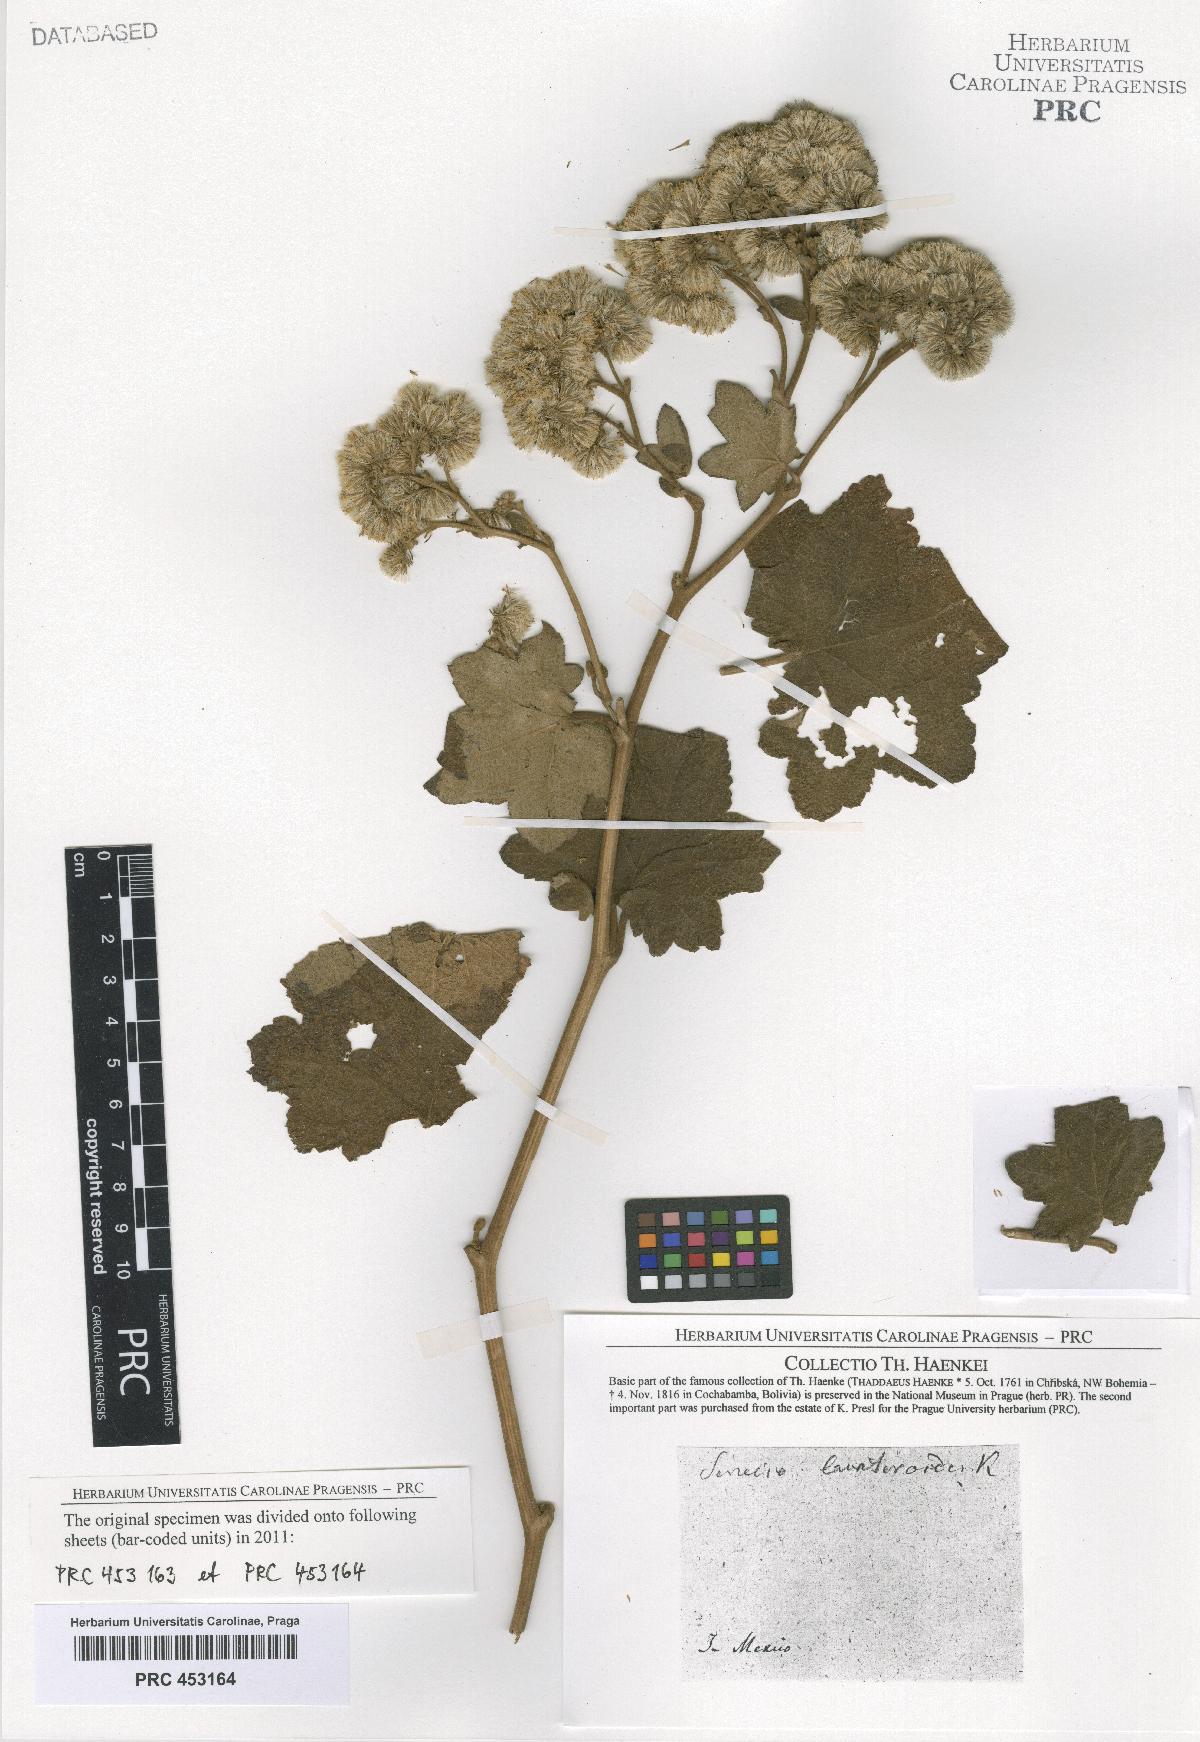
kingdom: Plantae
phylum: Tracheophyta
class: Magnoliopsida
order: Asterales
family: Asteraceae
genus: Senecio
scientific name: Senecio
